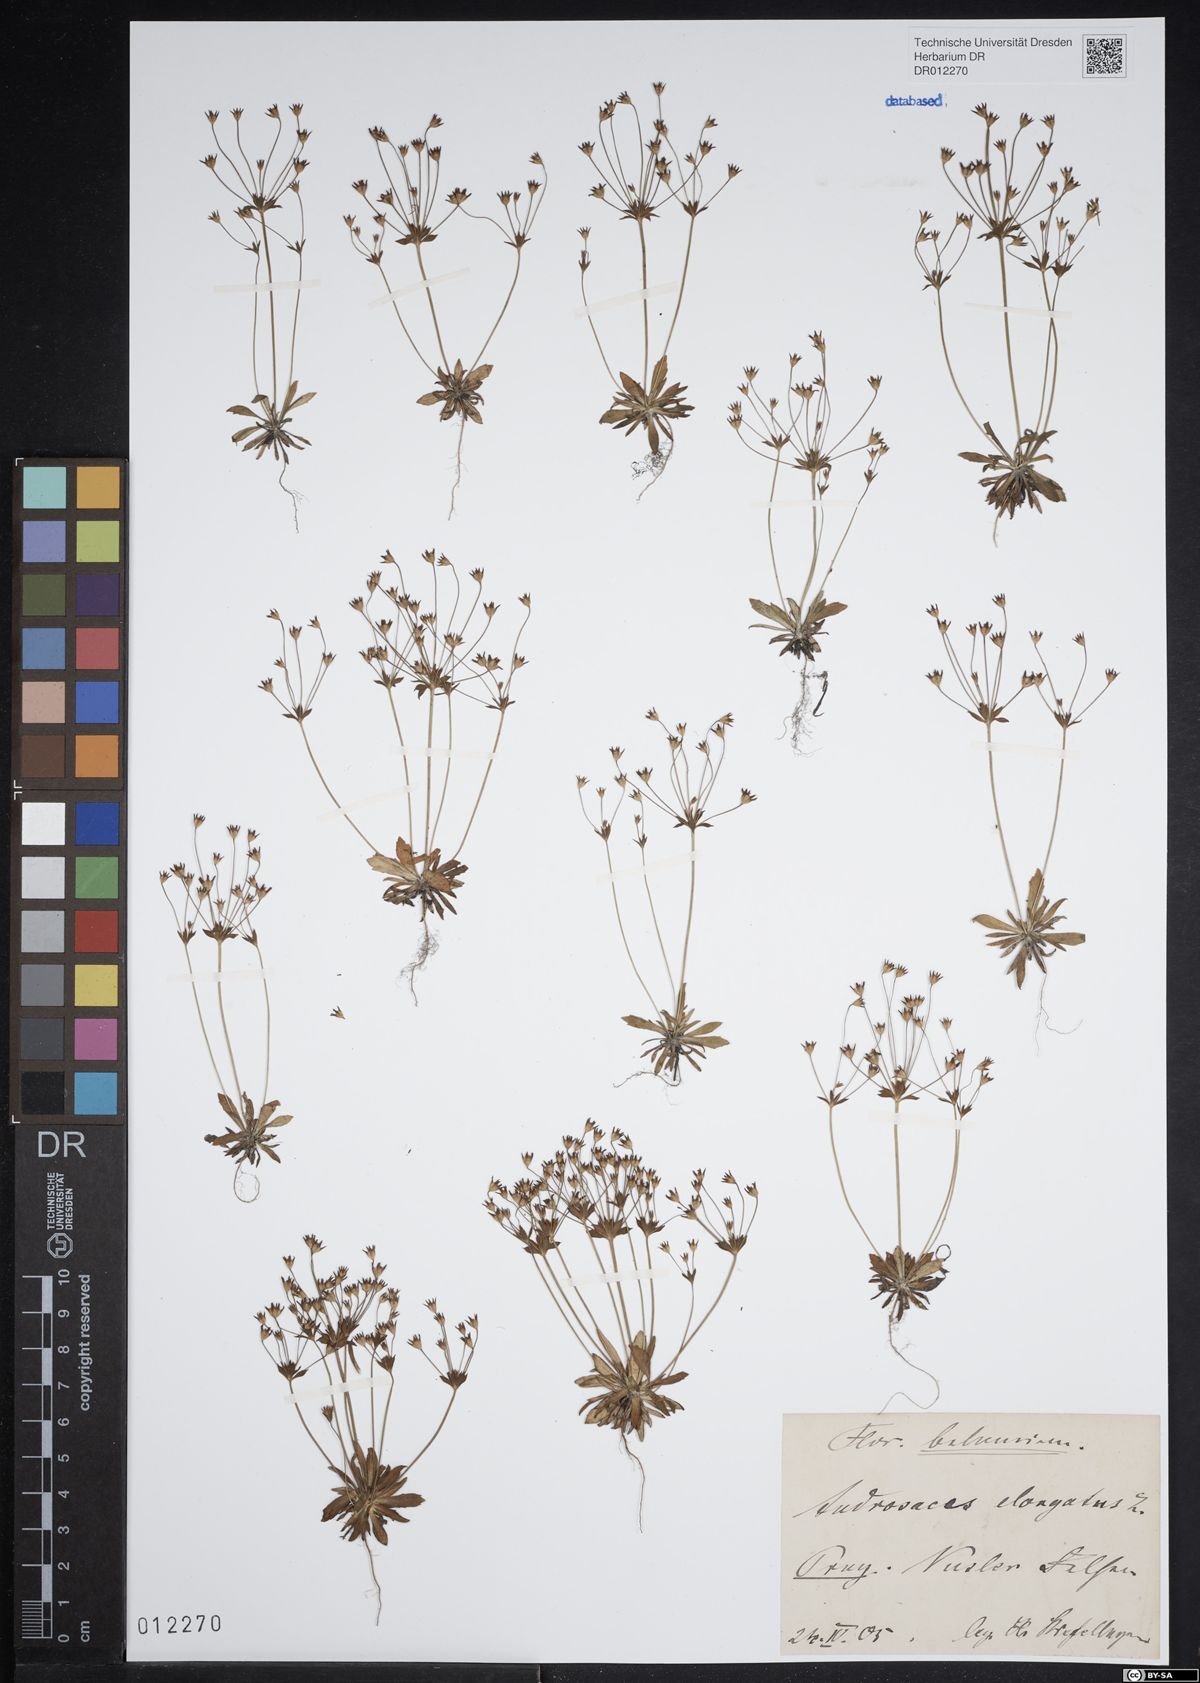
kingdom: Plantae
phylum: Tracheophyta
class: Magnoliopsida
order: Ericales
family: Primulaceae
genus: Androsace
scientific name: Androsace elongata
